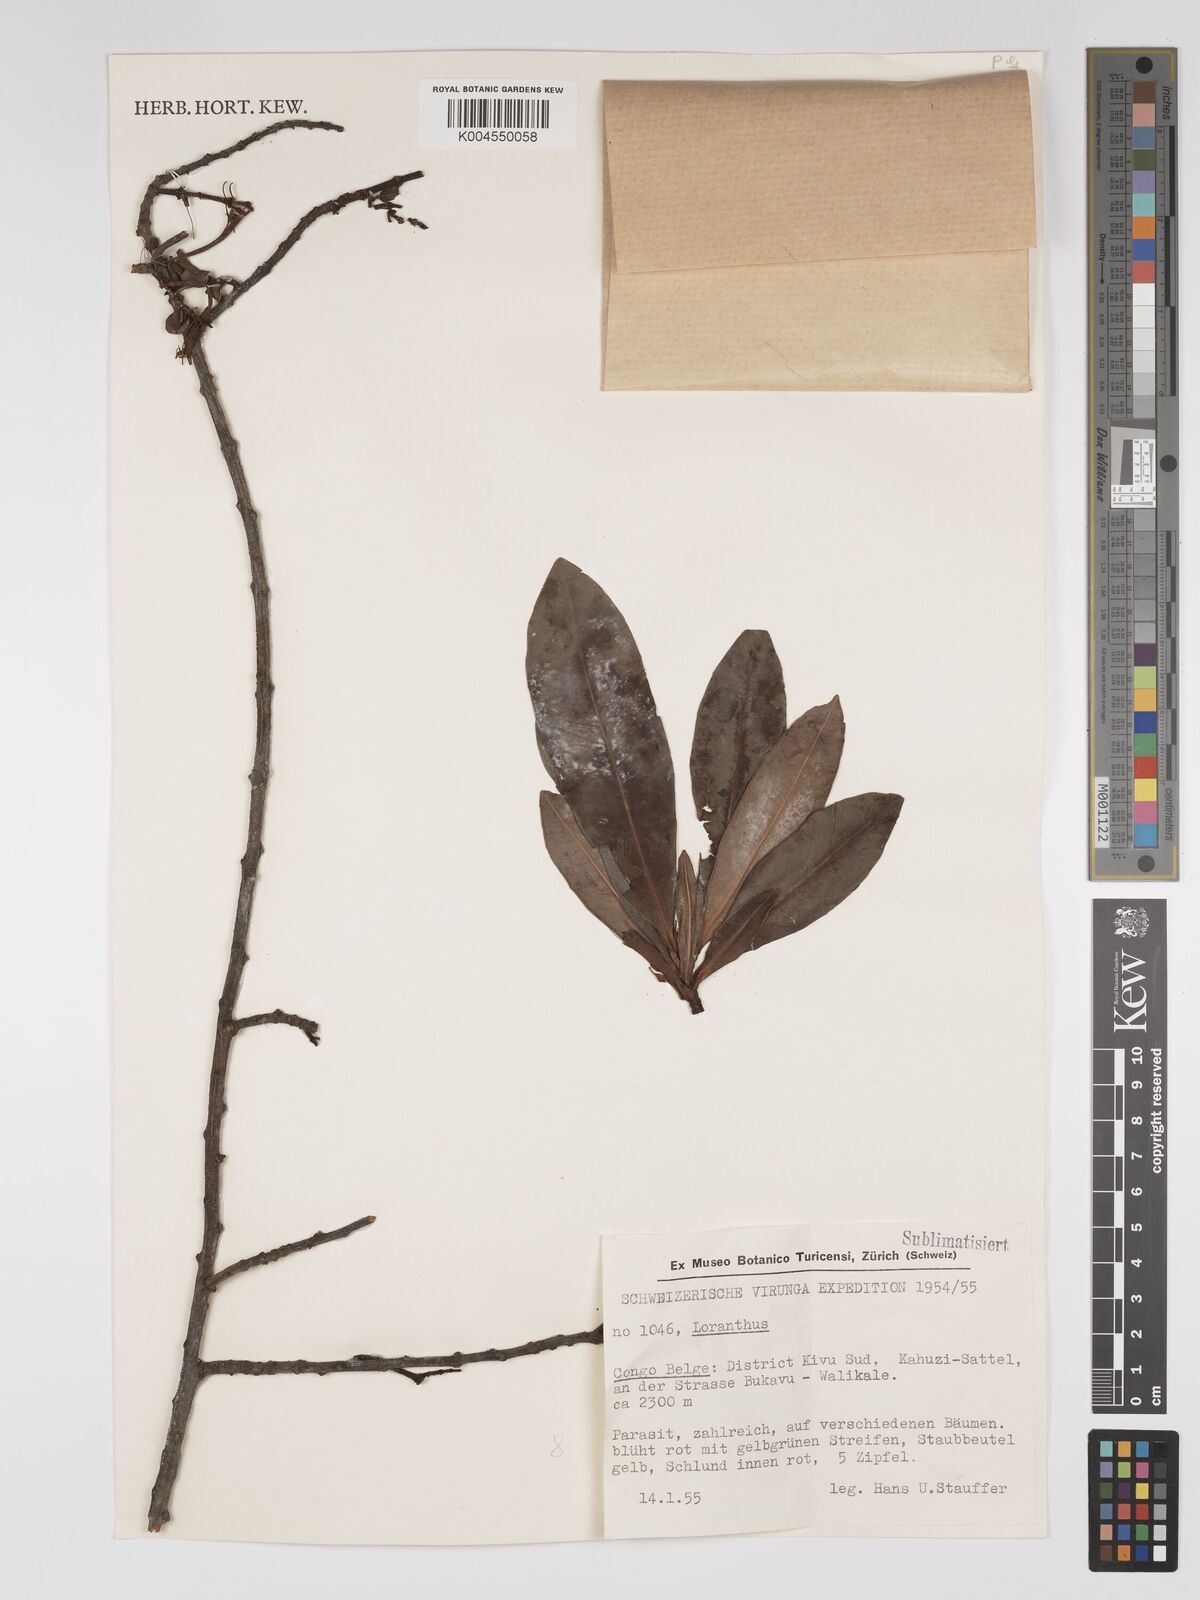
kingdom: Plantae
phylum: Tracheophyta
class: Magnoliopsida
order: Santalales
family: Loranthaceae
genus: Agelanthus
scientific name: Agelanthus myrsinifolius
